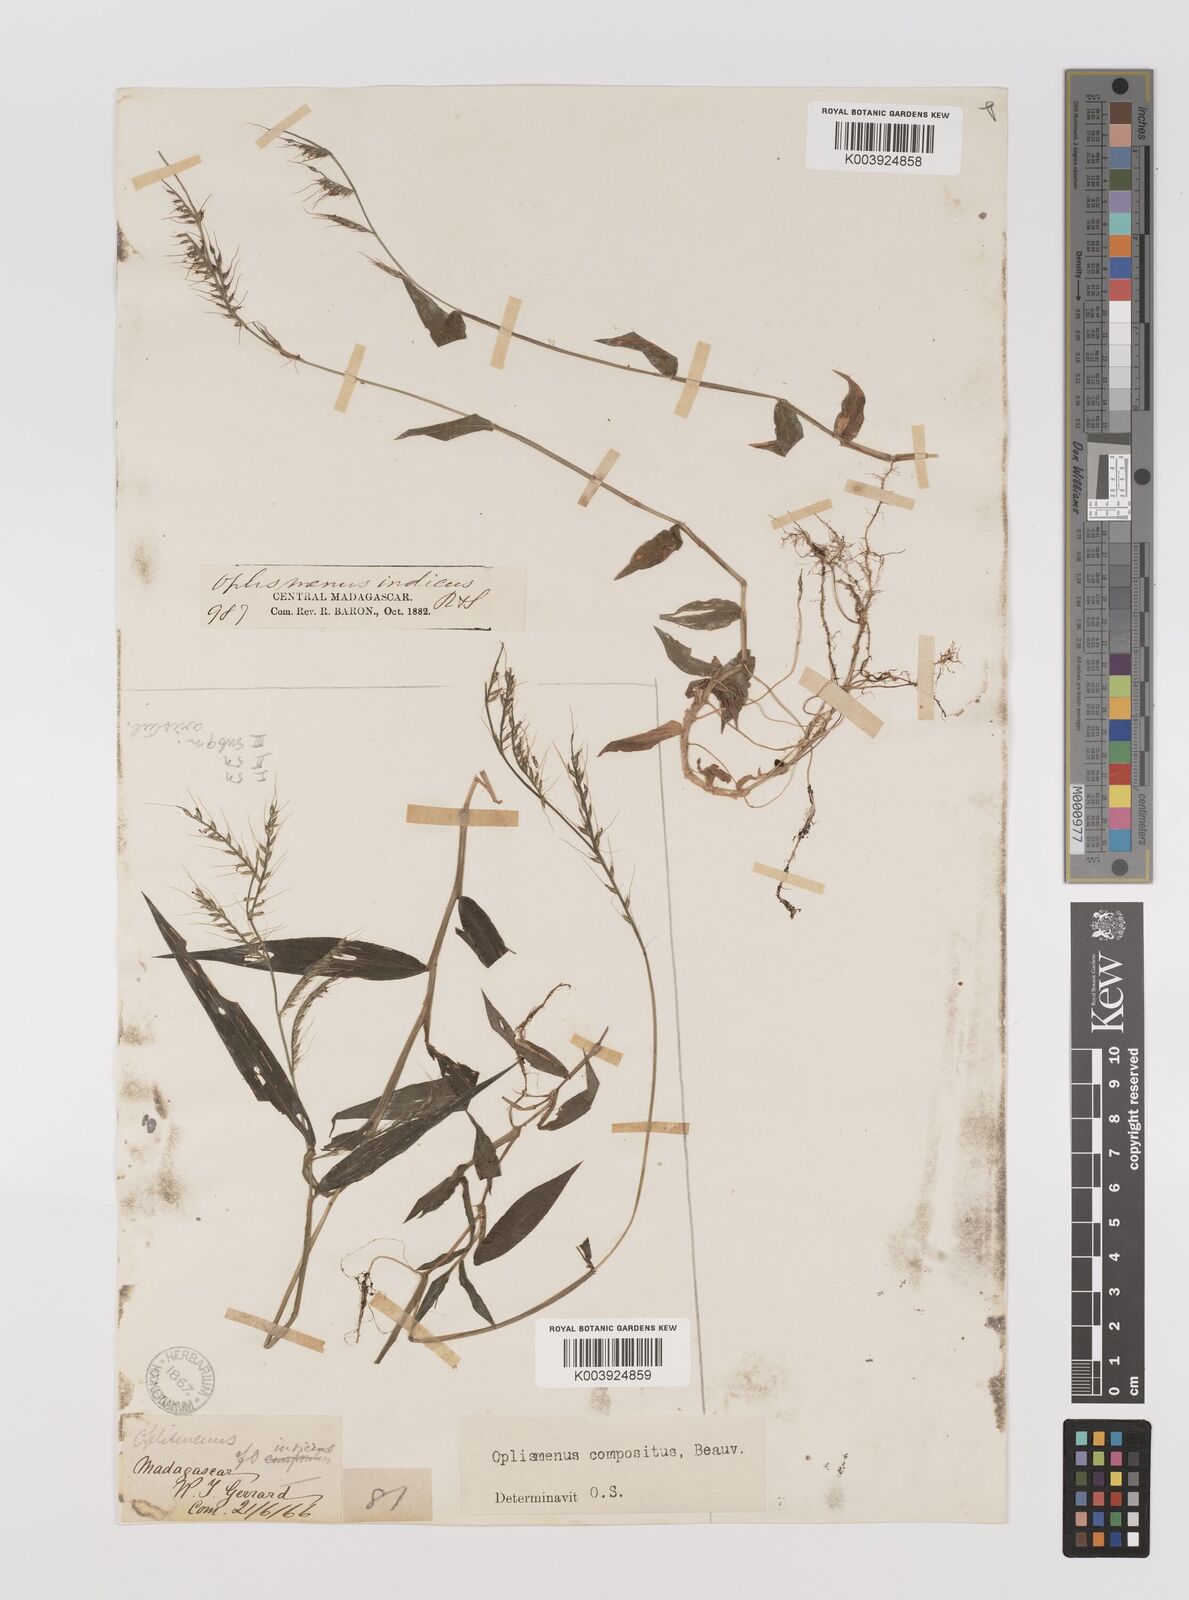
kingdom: Plantae
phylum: Tracheophyta
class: Liliopsida
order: Poales
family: Poaceae
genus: Oplismenus
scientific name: Oplismenus compositus
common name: Running mountain grass
